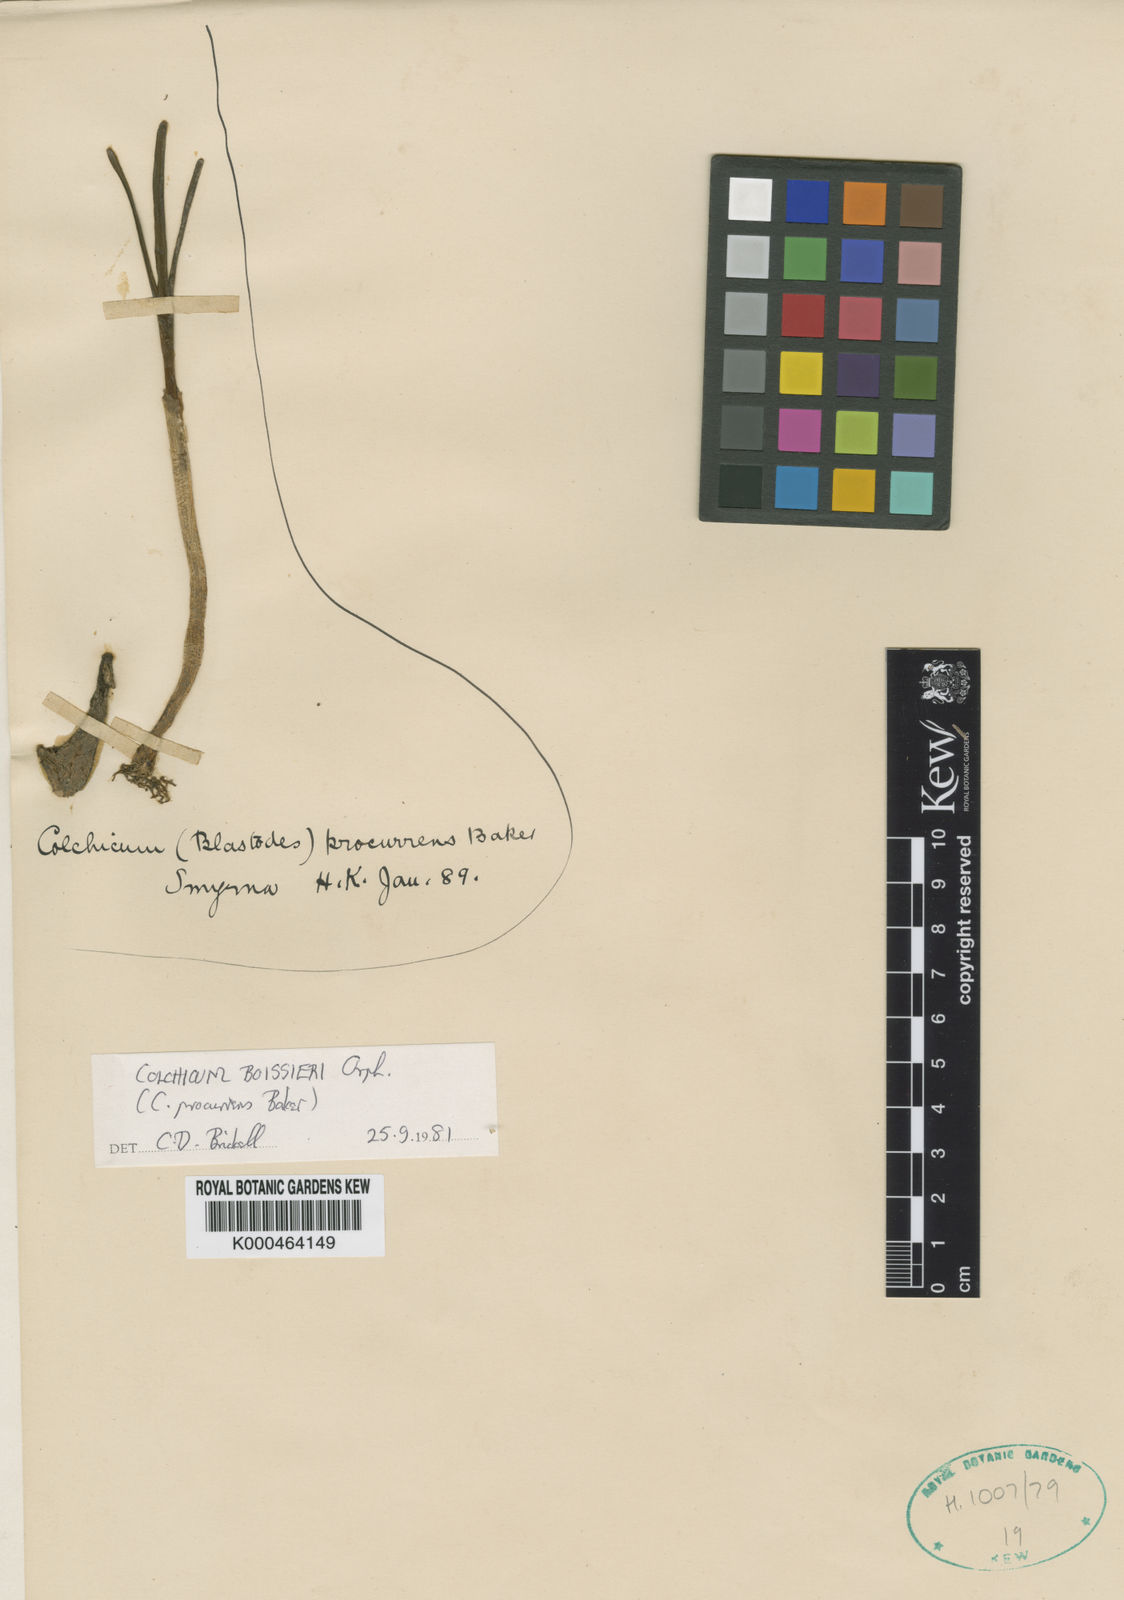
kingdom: Plantae
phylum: Tracheophyta
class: Liliopsida
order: Liliales
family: Colchicaceae
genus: Colchicum
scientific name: Colchicum boissieri
